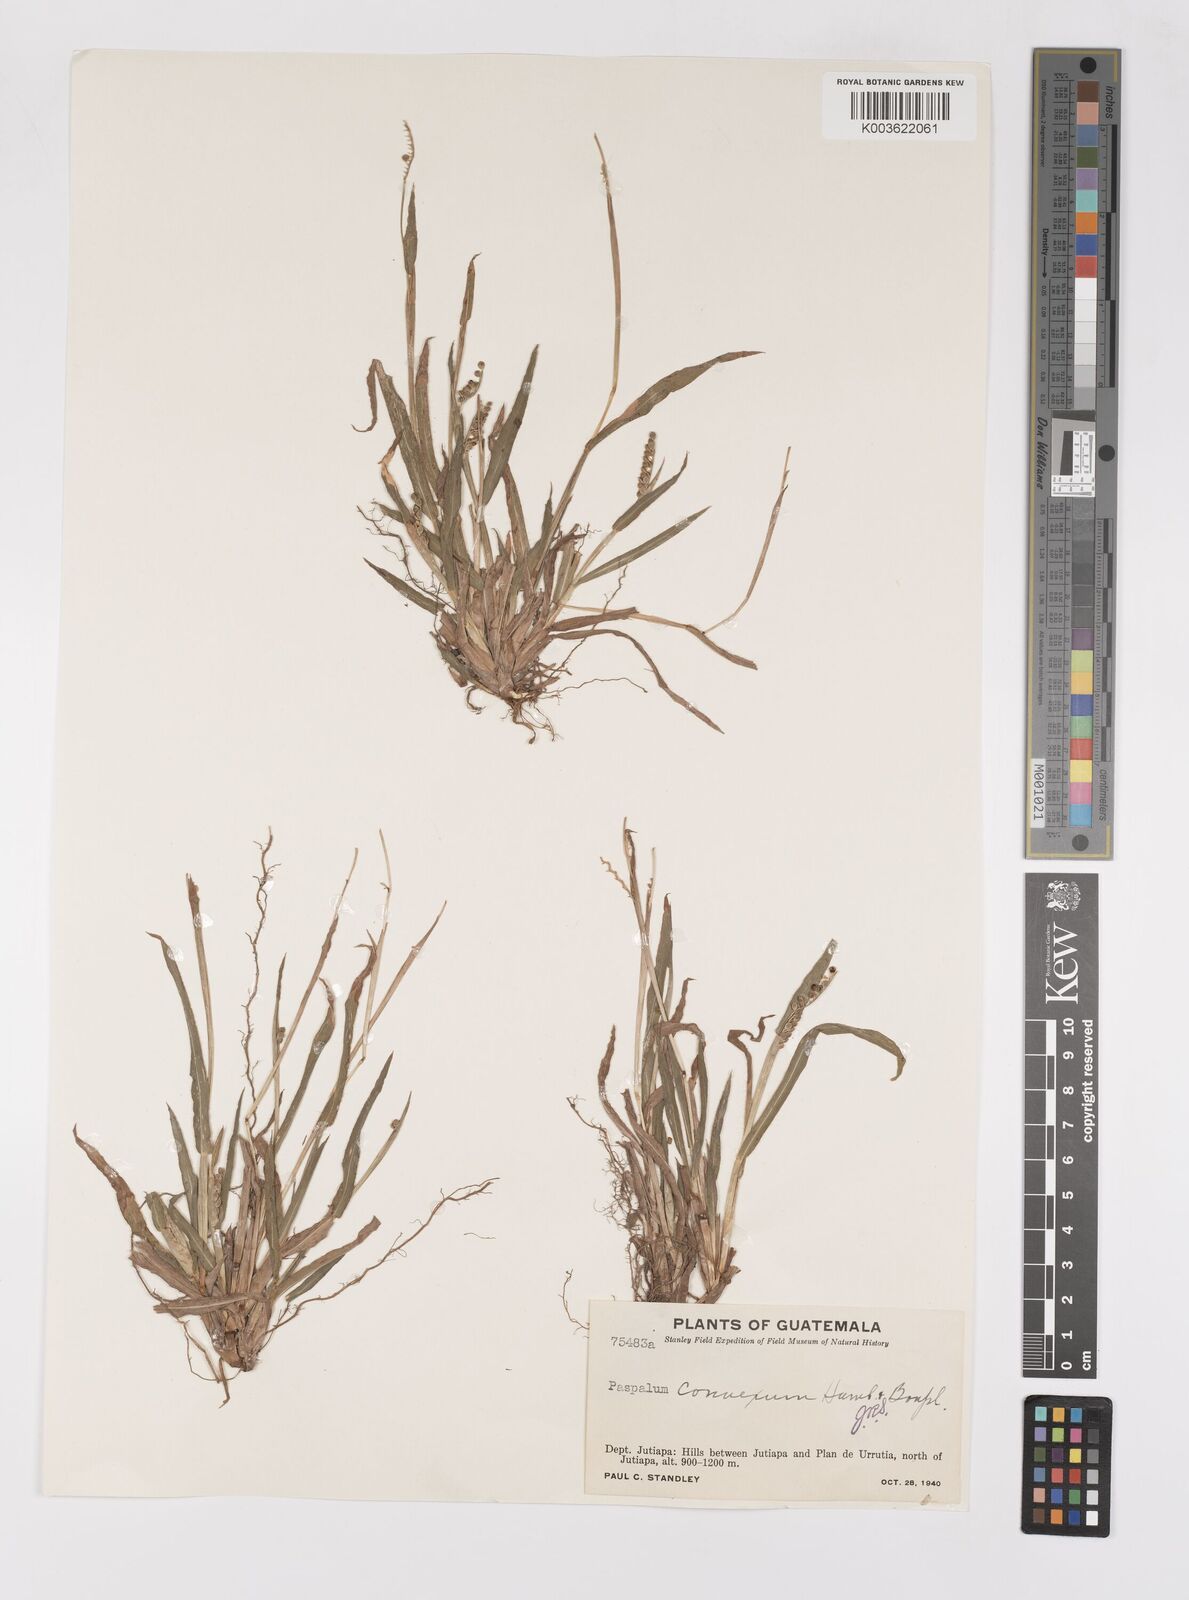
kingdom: Plantae
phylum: Tracheophyta
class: Liliopsida
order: Poales
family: Poaceae
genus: Paspalum
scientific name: Paspalum convexum
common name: Latin american crowngrass
